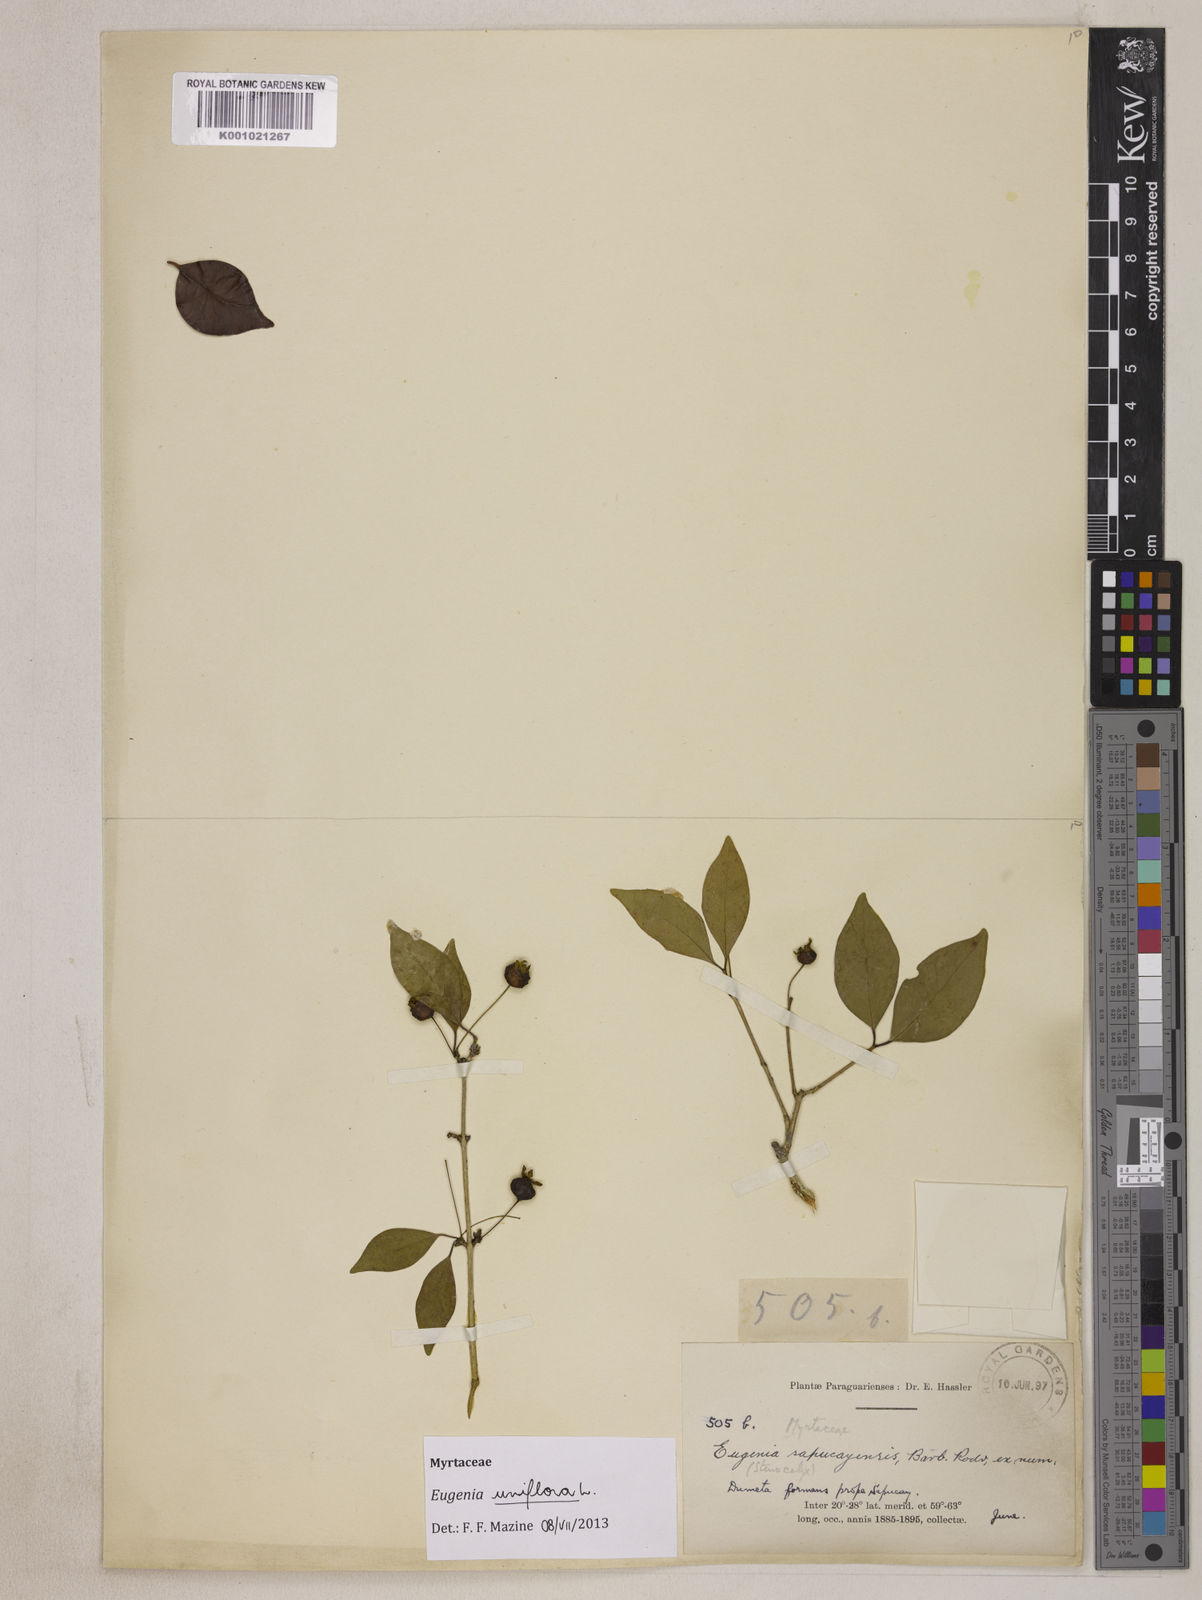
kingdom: Plantae
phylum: Tracheophyta
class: Magnoliopsida
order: Myrtales
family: Myrtaceae
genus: Eugenia
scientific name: Eugenia uniflora
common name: Surinam cherry
